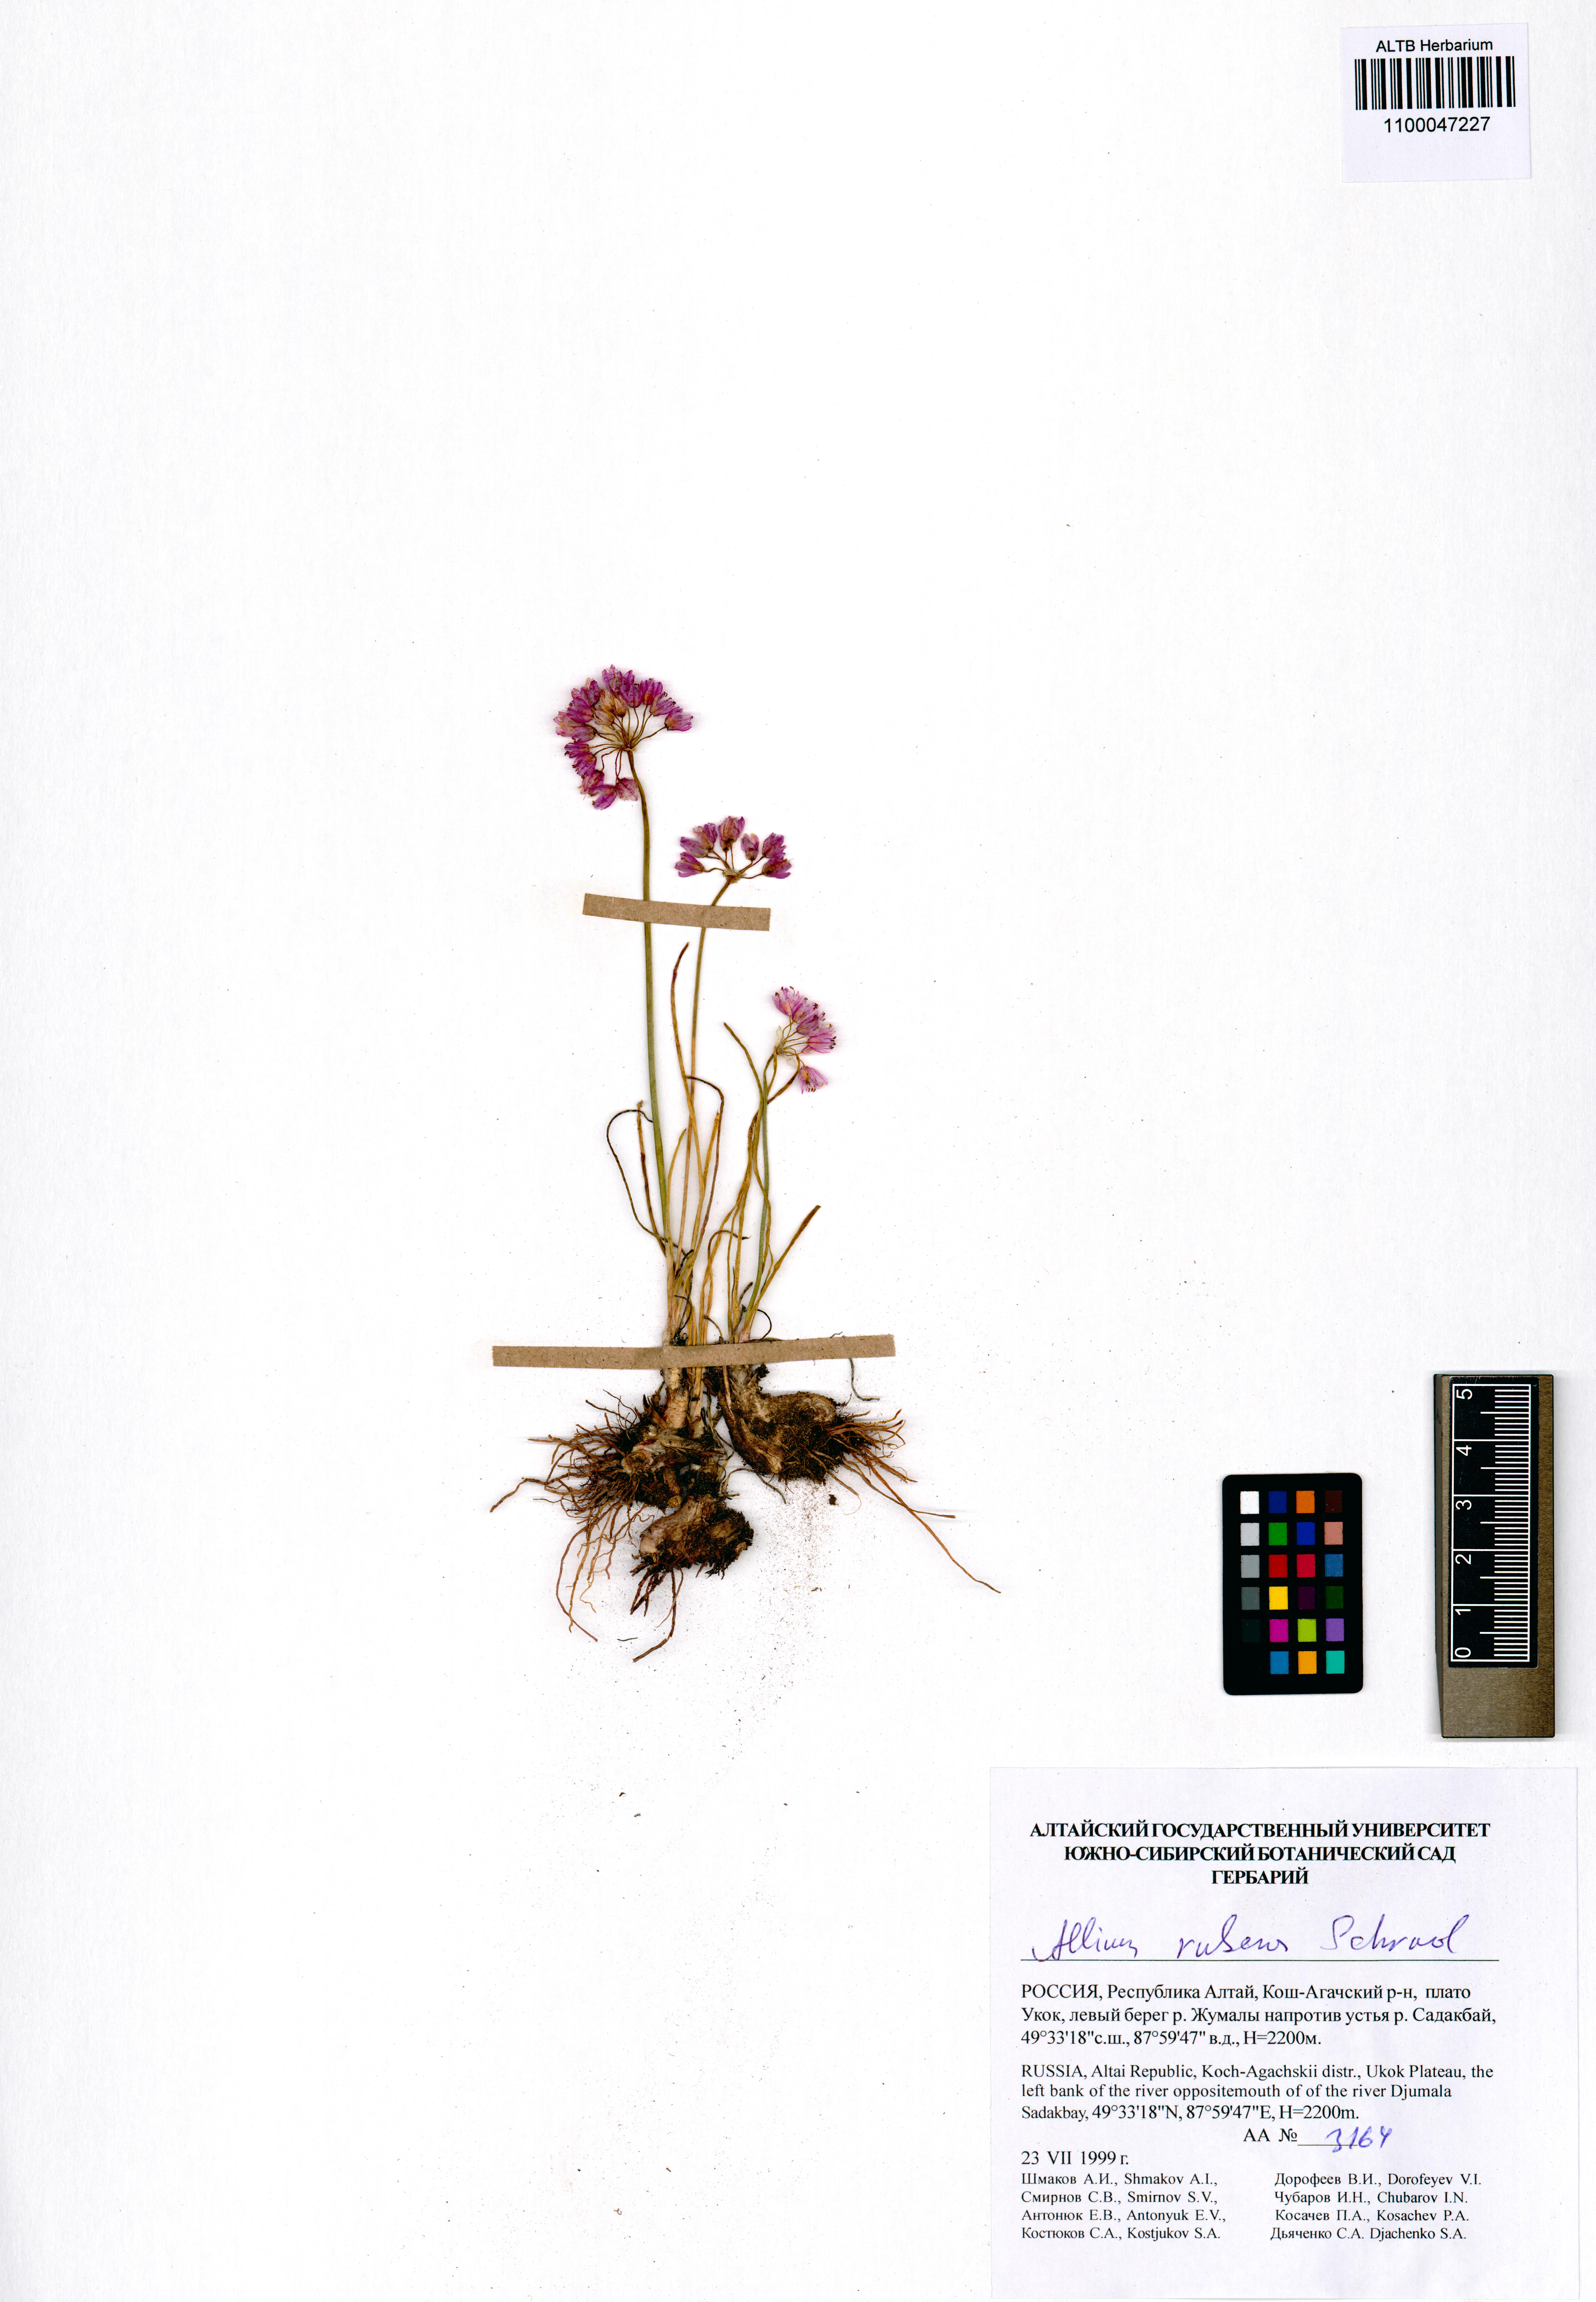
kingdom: Plantae
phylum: Tracheophyta
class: Liliopsida
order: Asparagales
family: Amaryllidaceae
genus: Allium
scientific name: Allium rubens
